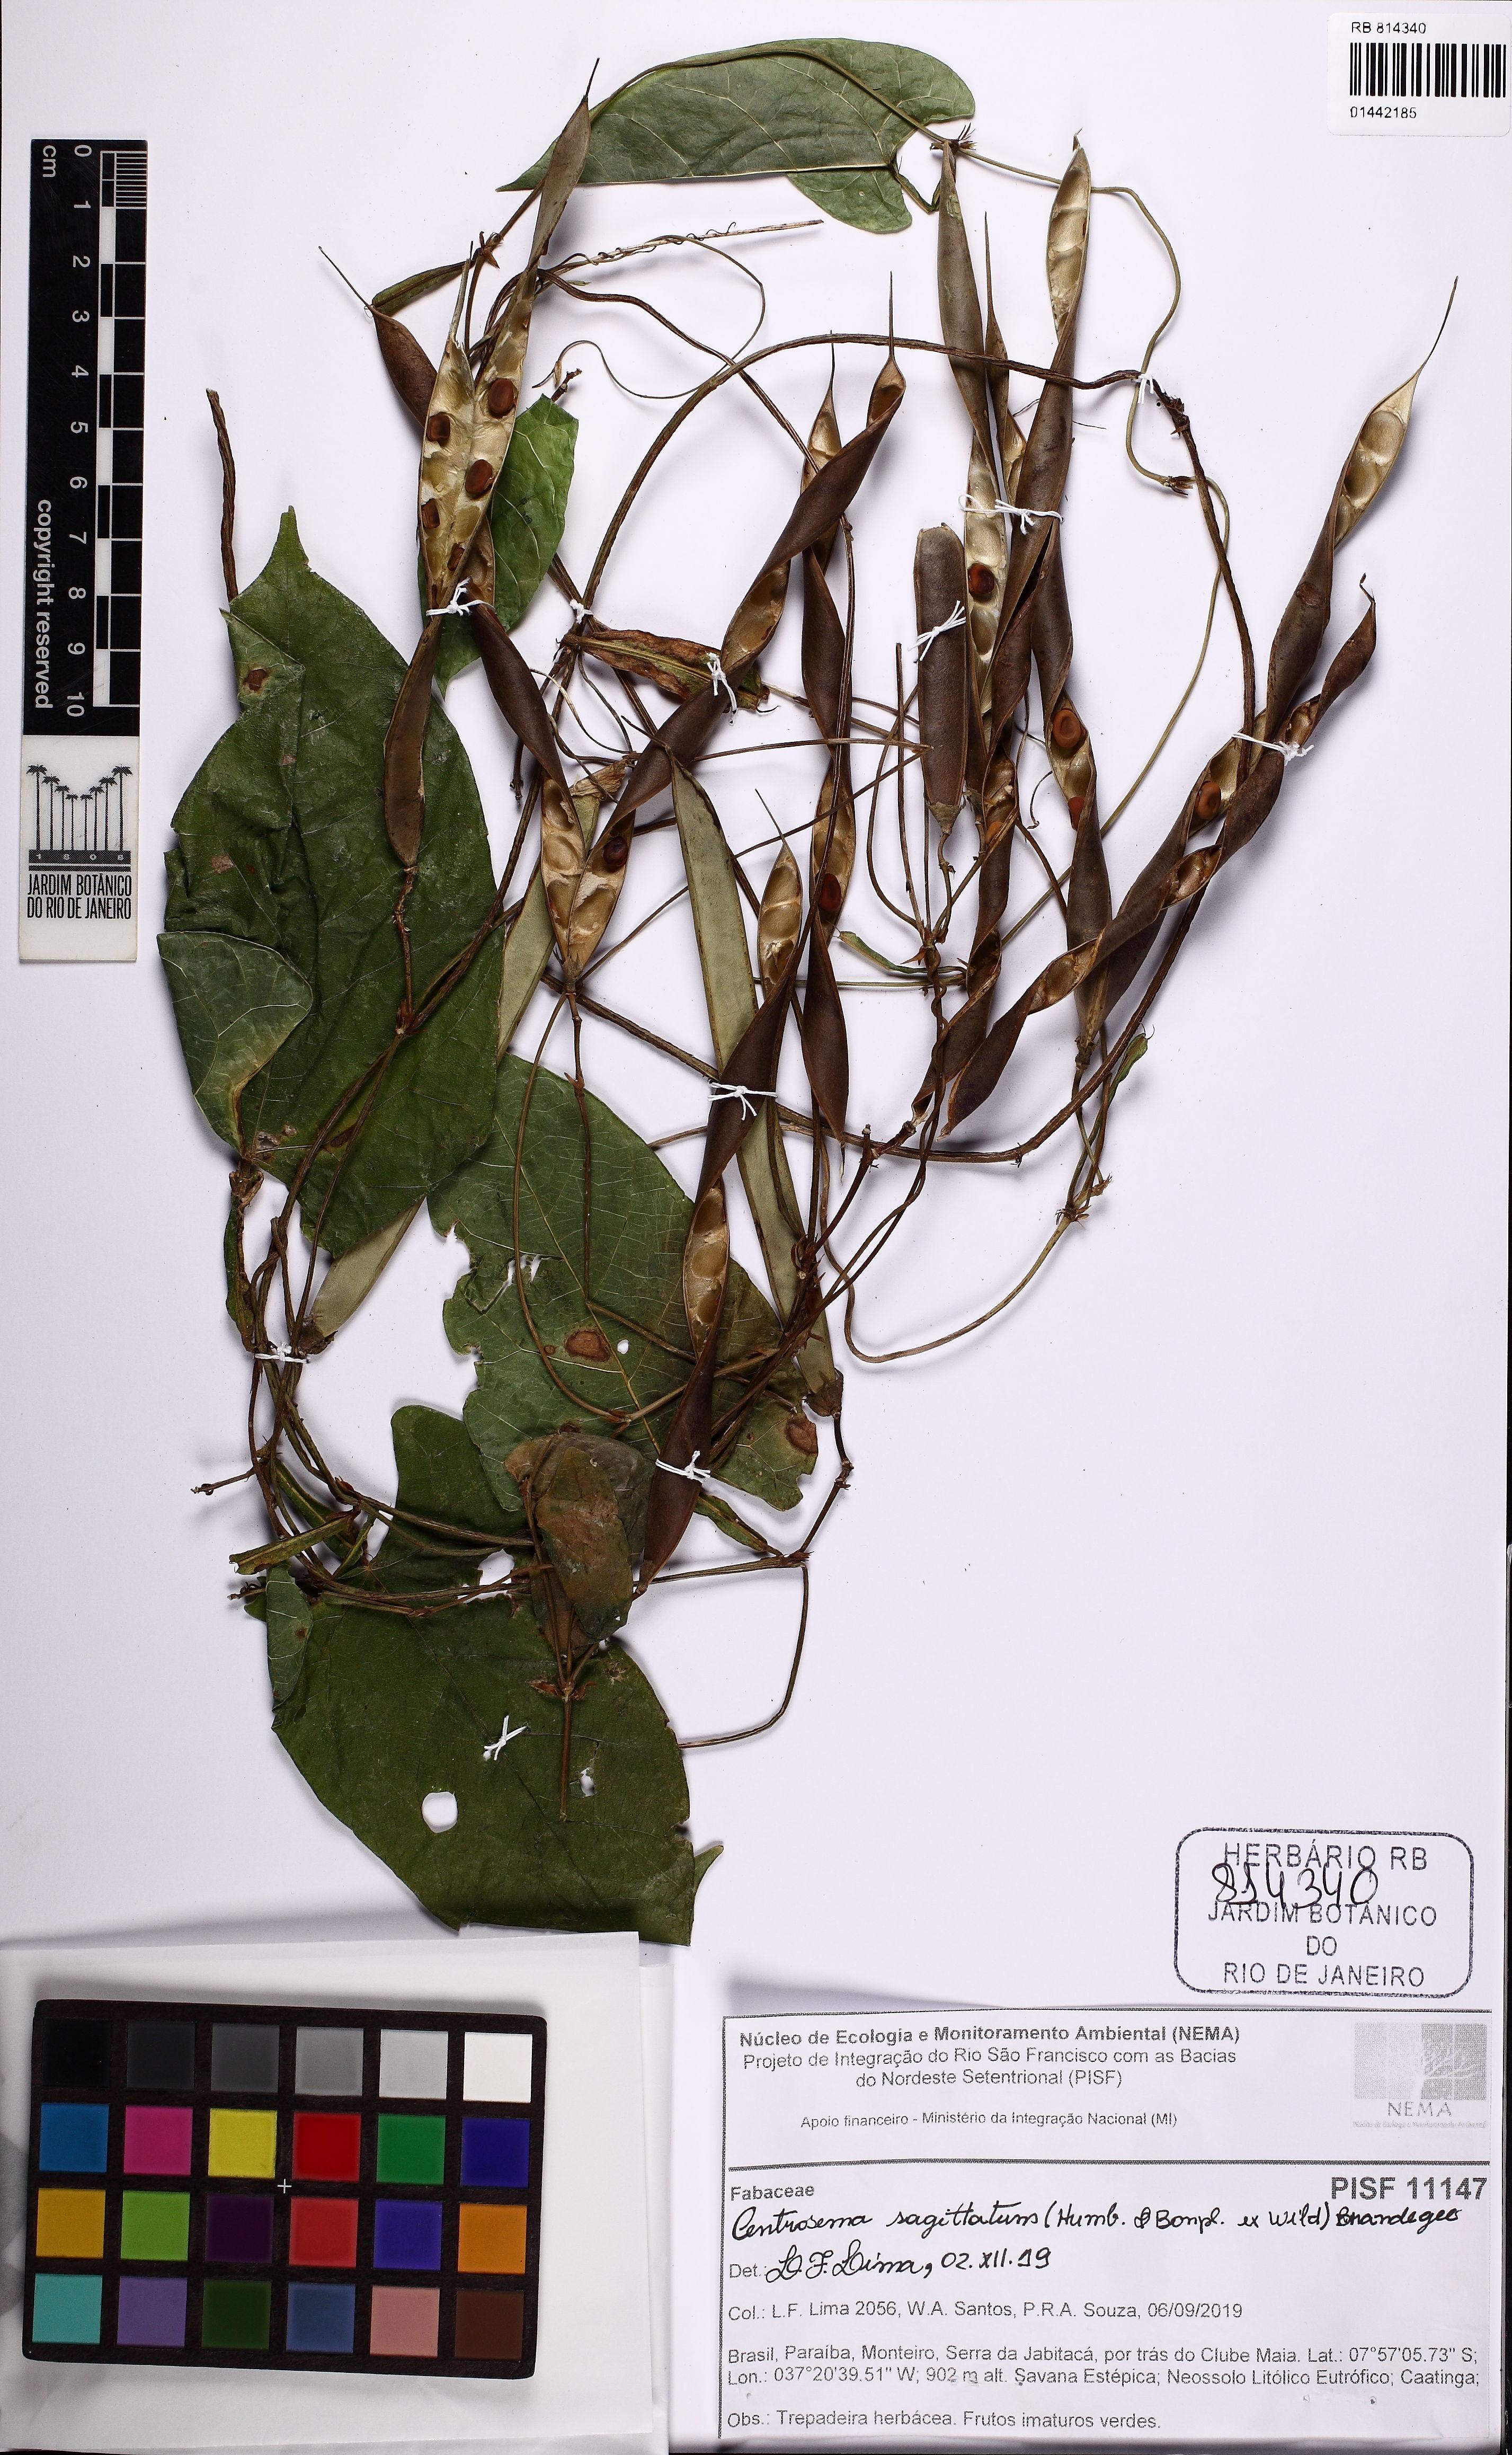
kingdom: Plantae
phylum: Tracheophyta
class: Magnoliopsida
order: Fabales
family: Fabaceae
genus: Centrosema
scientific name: Centrosema sagittatum
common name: Arrowleaf butterfly pea
